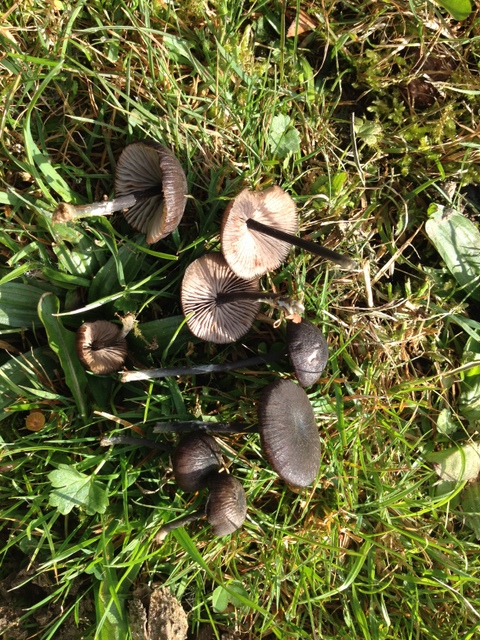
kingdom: Fungi
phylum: Basidiomycota
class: Agaricomycetes
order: Agaricales
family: Entolomataceae
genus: Entoloma
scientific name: Entoloma chalybeum
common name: blåbladet rødblad
